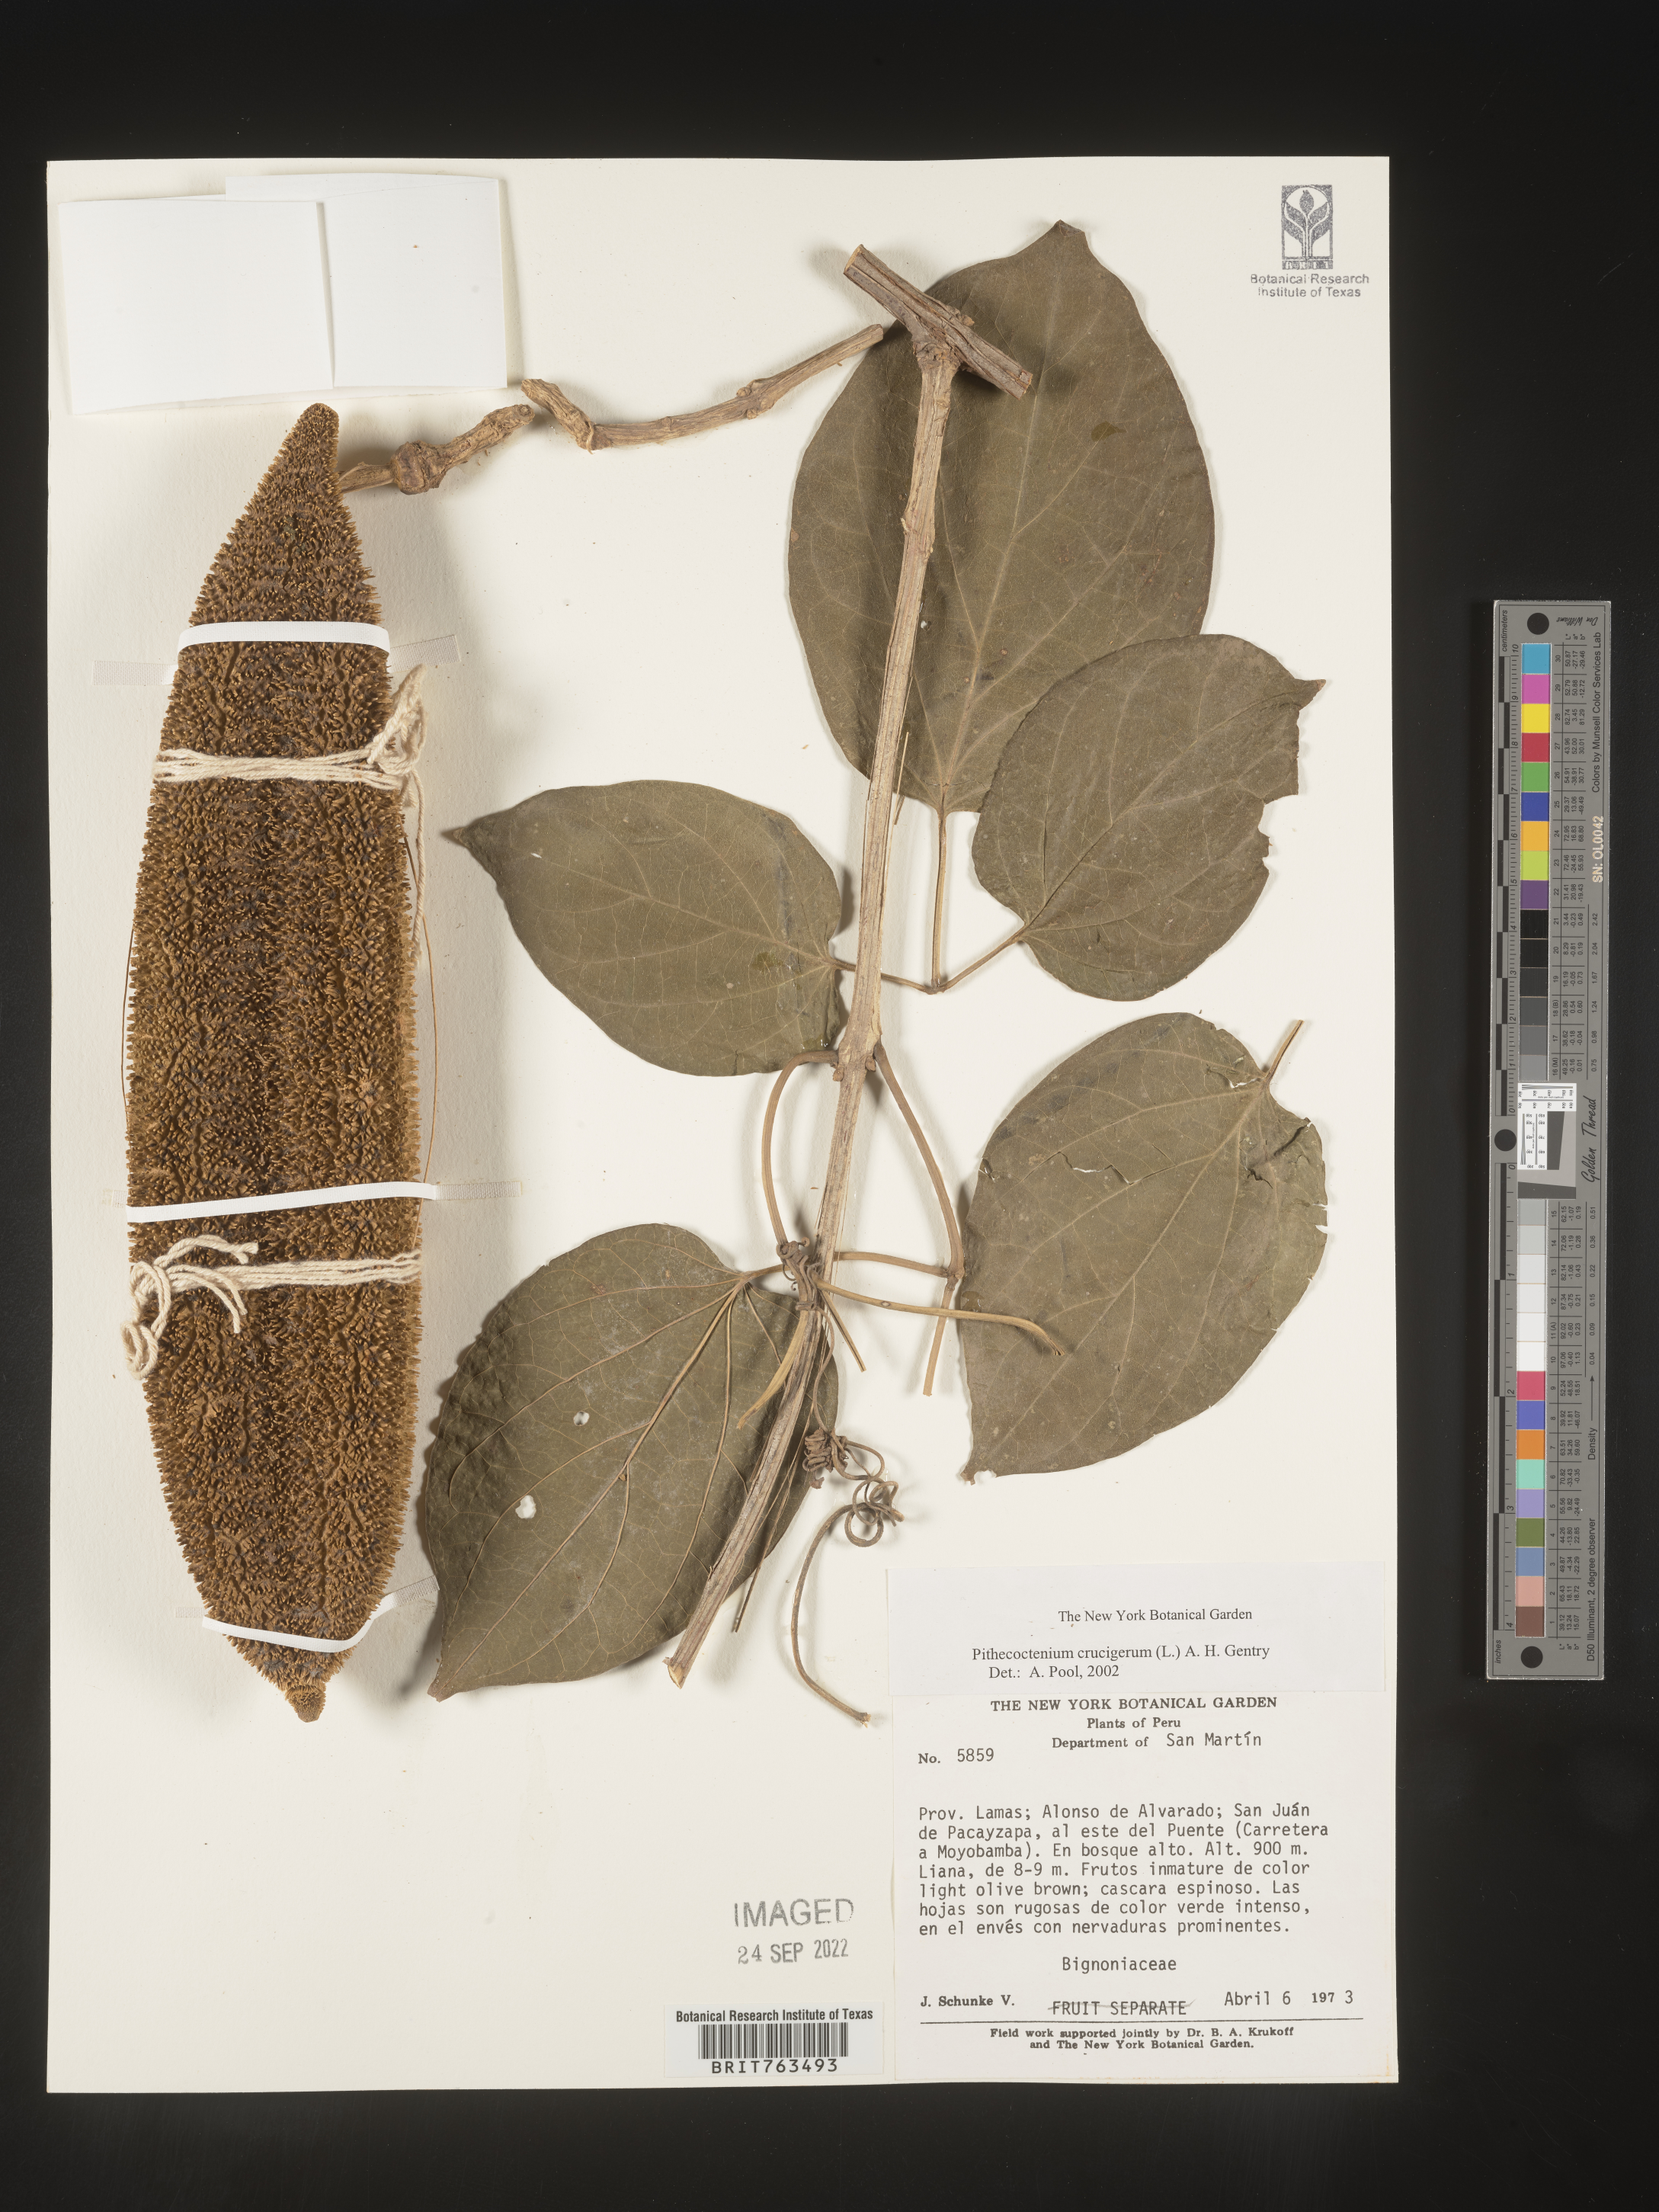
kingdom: Plantae
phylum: Tracheophyta
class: Magnoliopsida
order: Lamiales
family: Bignoniaceae
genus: Pithecoctenium
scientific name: Pithecoctenium
